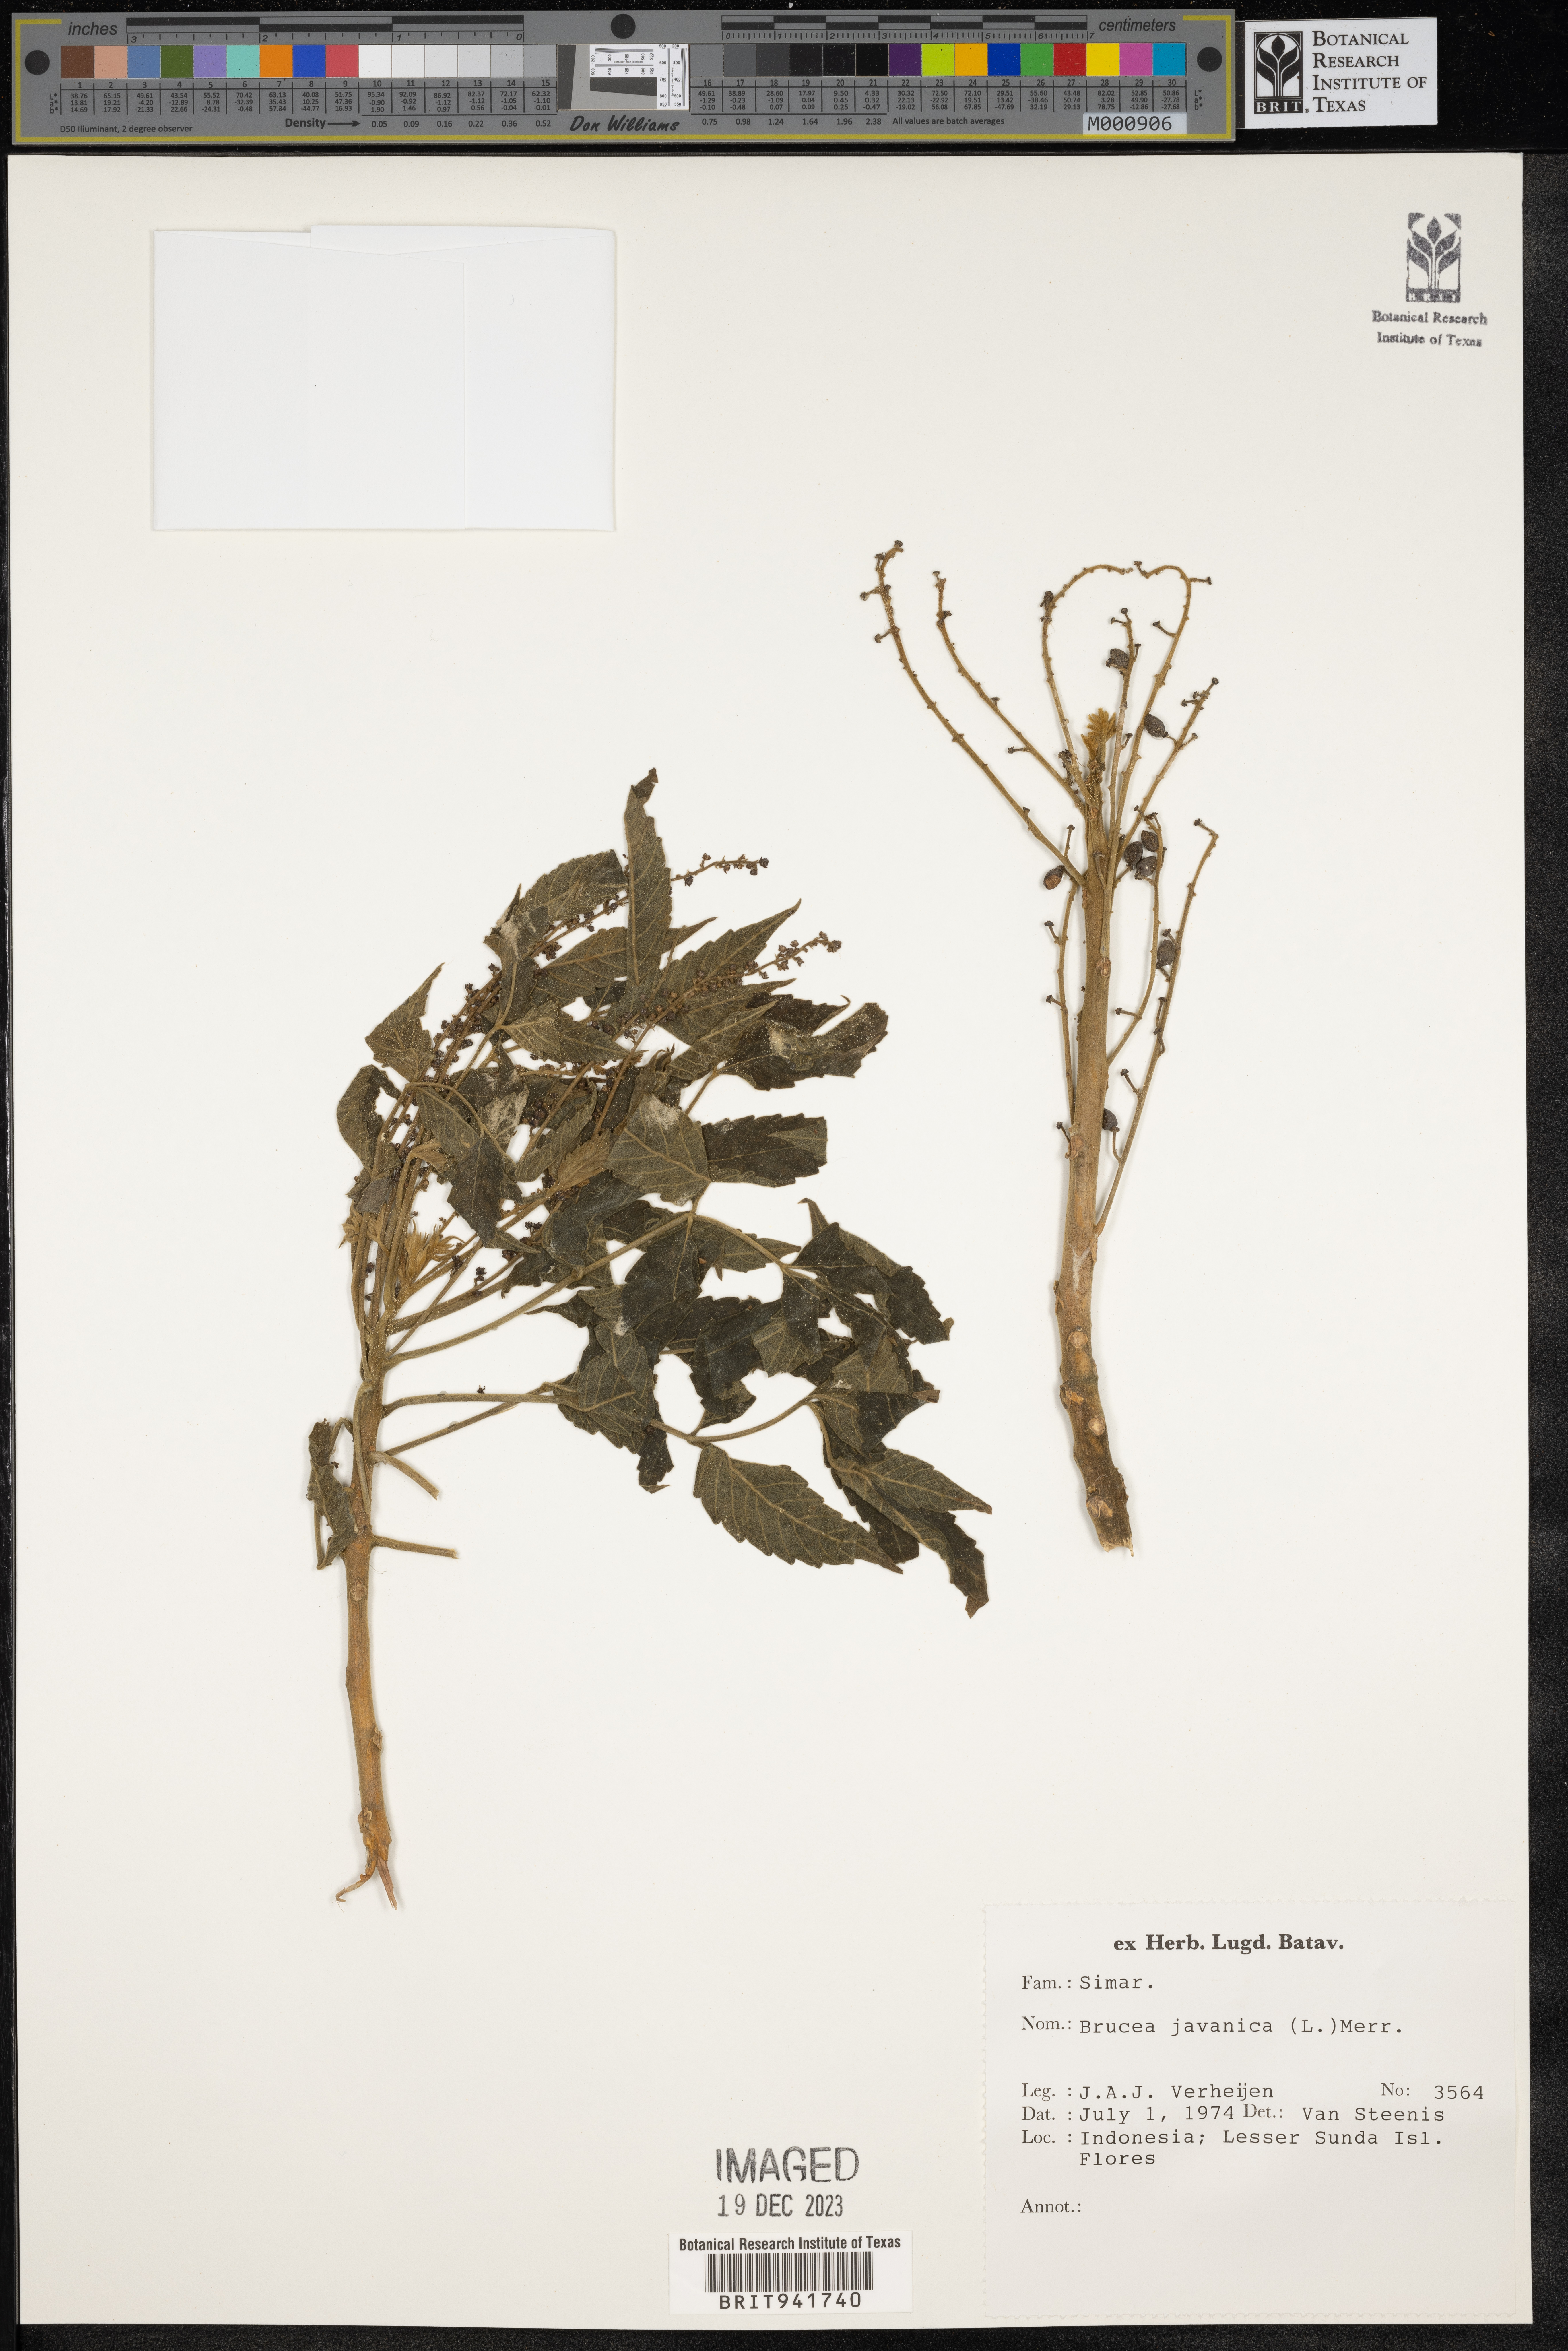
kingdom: Plantae
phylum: Tracheophyta
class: Magnoliopsida
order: Sapindales
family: Simaroubaceae
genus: Brucea
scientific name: Brucea
